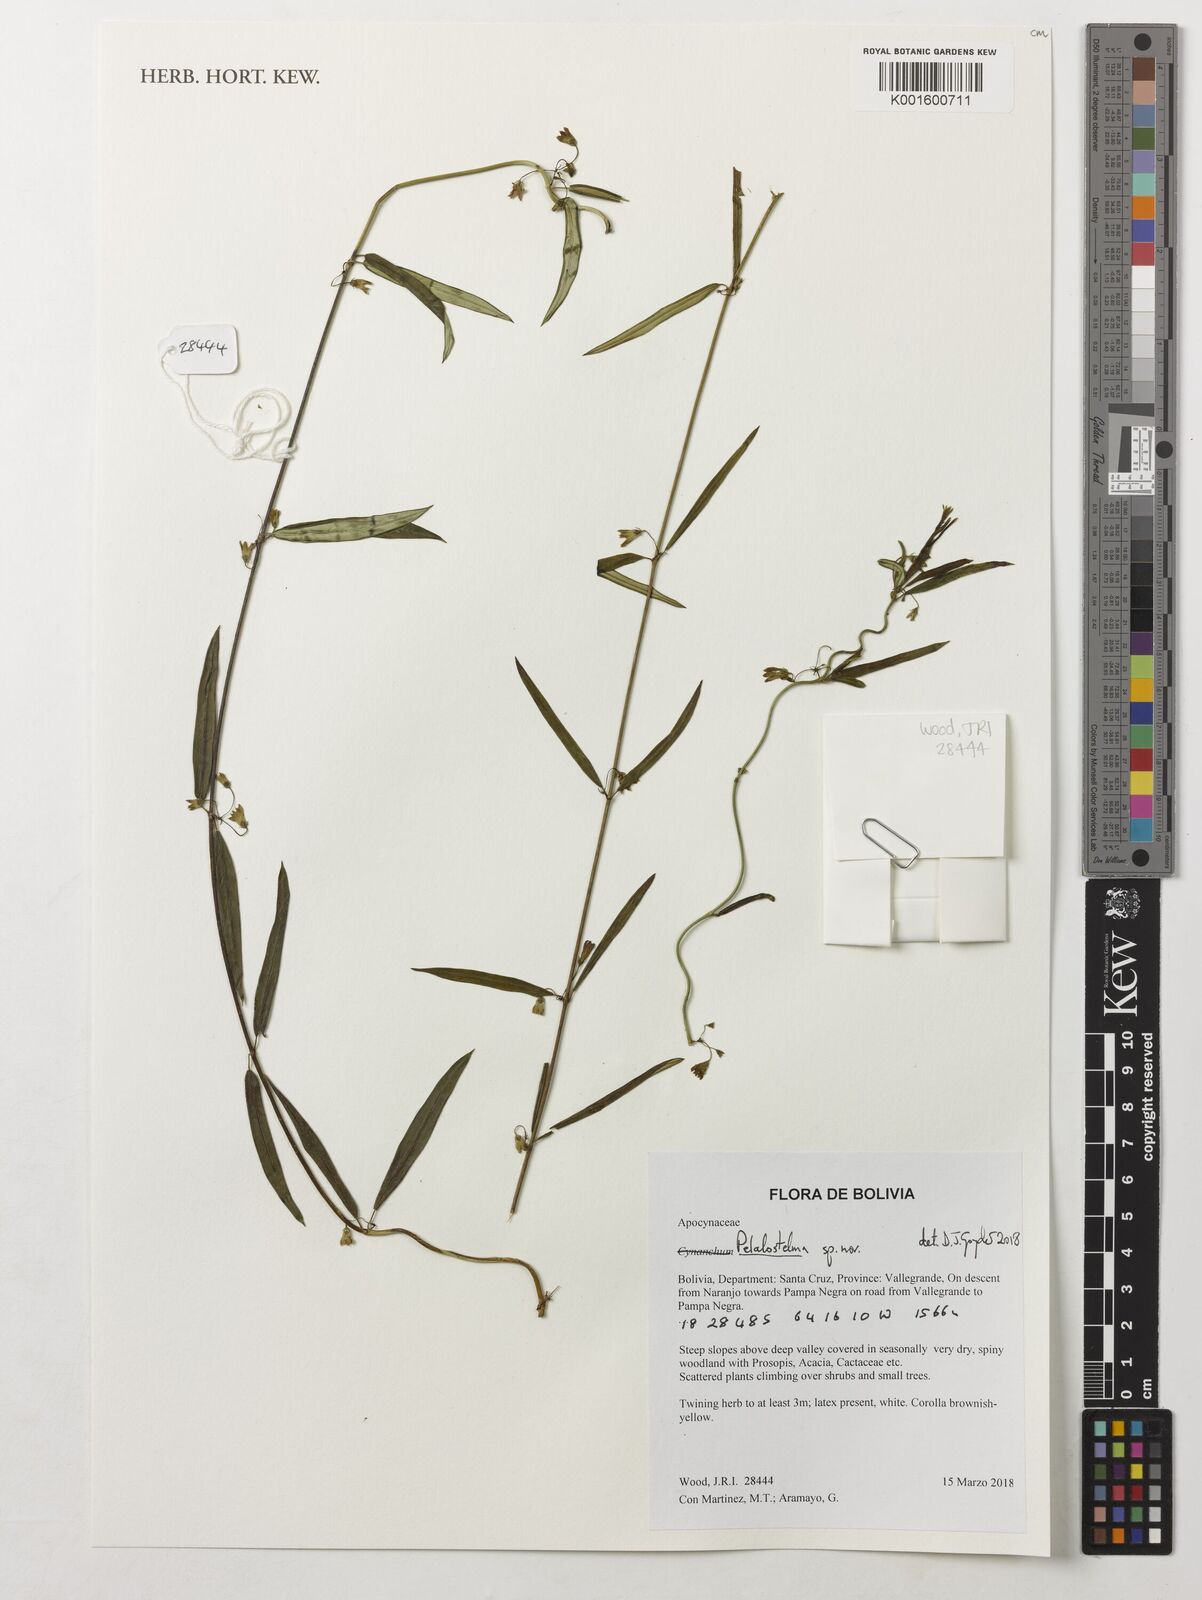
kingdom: Plantae
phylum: Tracheophyta
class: Magnoliopsida
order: Gentianales
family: Apocynaceae
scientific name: Apocynaceae
